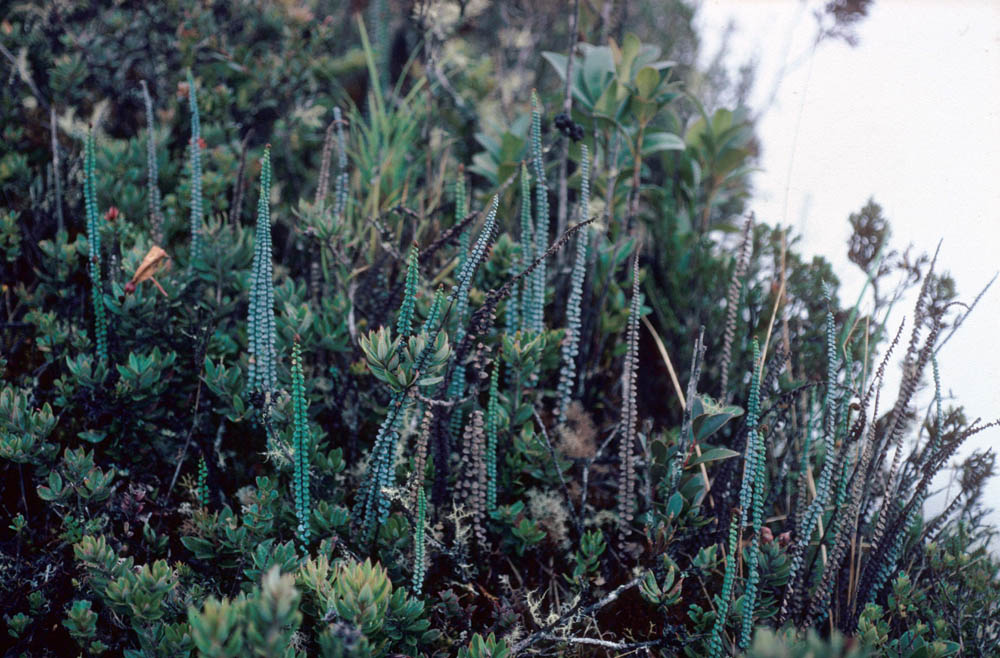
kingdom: Plantae
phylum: Tracheophyta
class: Polypodiopsida
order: Polypodiales
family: Pteridaceae
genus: Jamesonia
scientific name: Jamesonia blepharum
